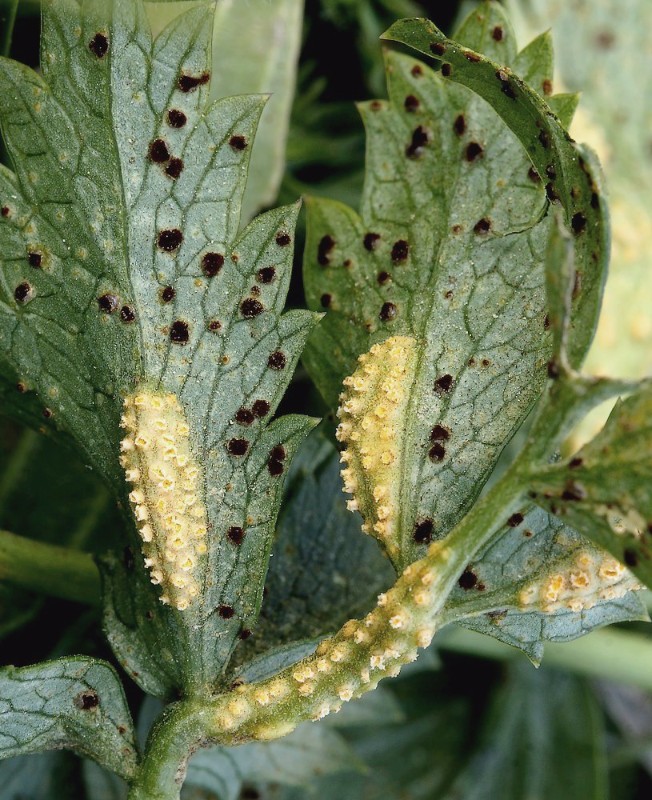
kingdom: Fungi
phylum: Basidiomycota
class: Pucciniomycetes
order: Pucciniales
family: Pucciniaceae
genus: Puccinia
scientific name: Puccinia pimpinellae
